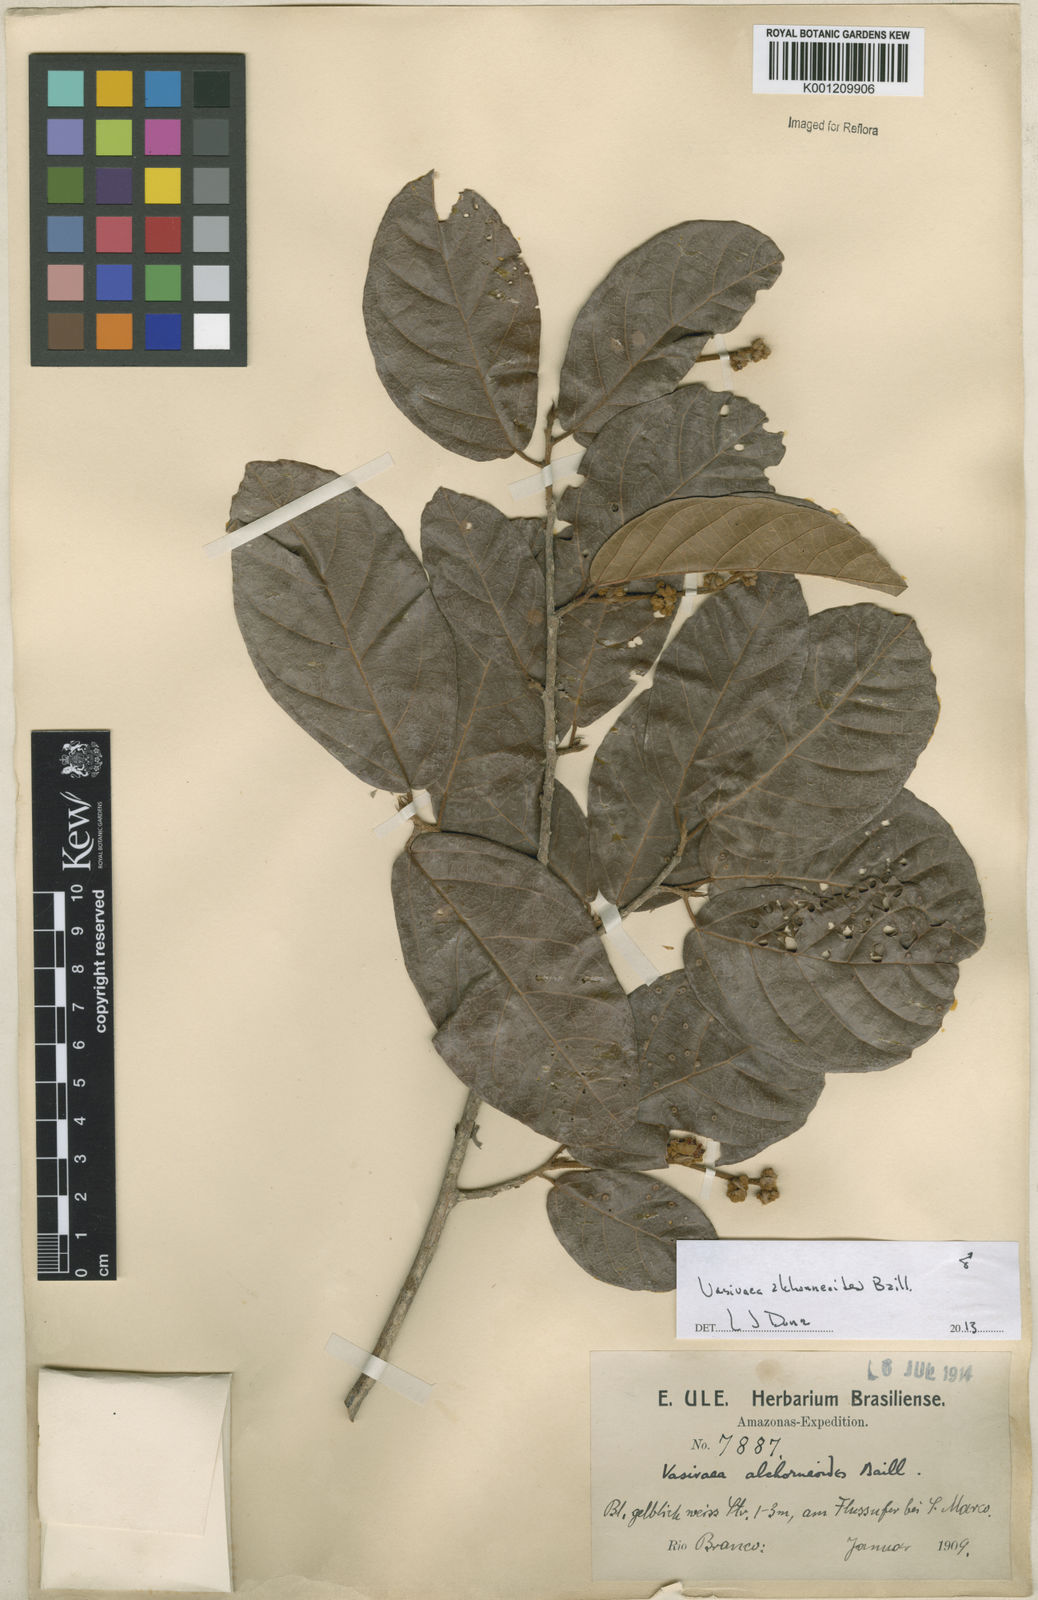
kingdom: Plantae
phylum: Tracheophyta
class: Magnoliopsida
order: Malvales
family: Malvaceae
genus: Vasivaea
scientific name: Vasivaea alchorneoides
